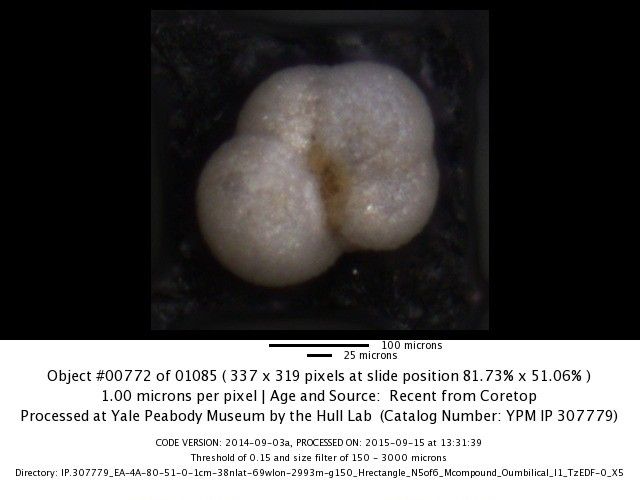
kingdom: Chromista
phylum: Foraminifera
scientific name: Foraminifera
